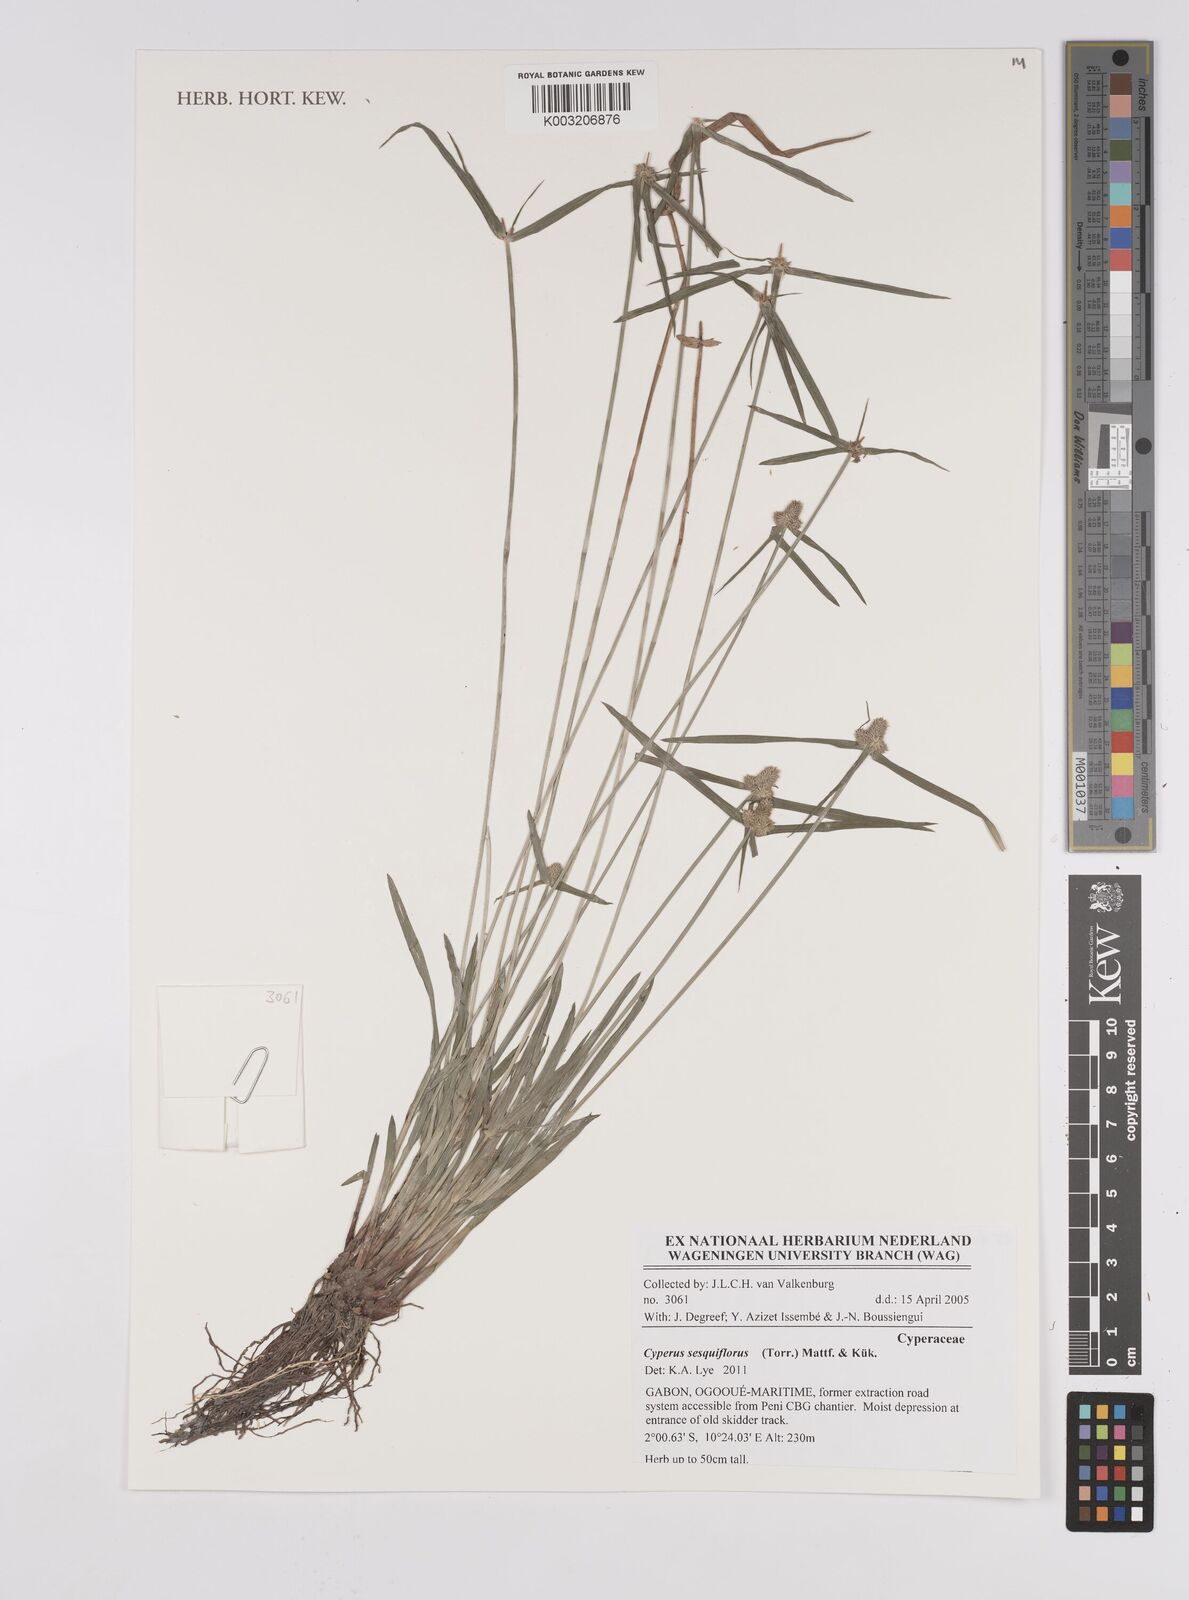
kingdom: Plantae
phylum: Tracheophyta
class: Liliopsida
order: Poales
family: Cyperaceae
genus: Cyperus
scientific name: Cyperus odoratus
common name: Fragrant flatsedge
